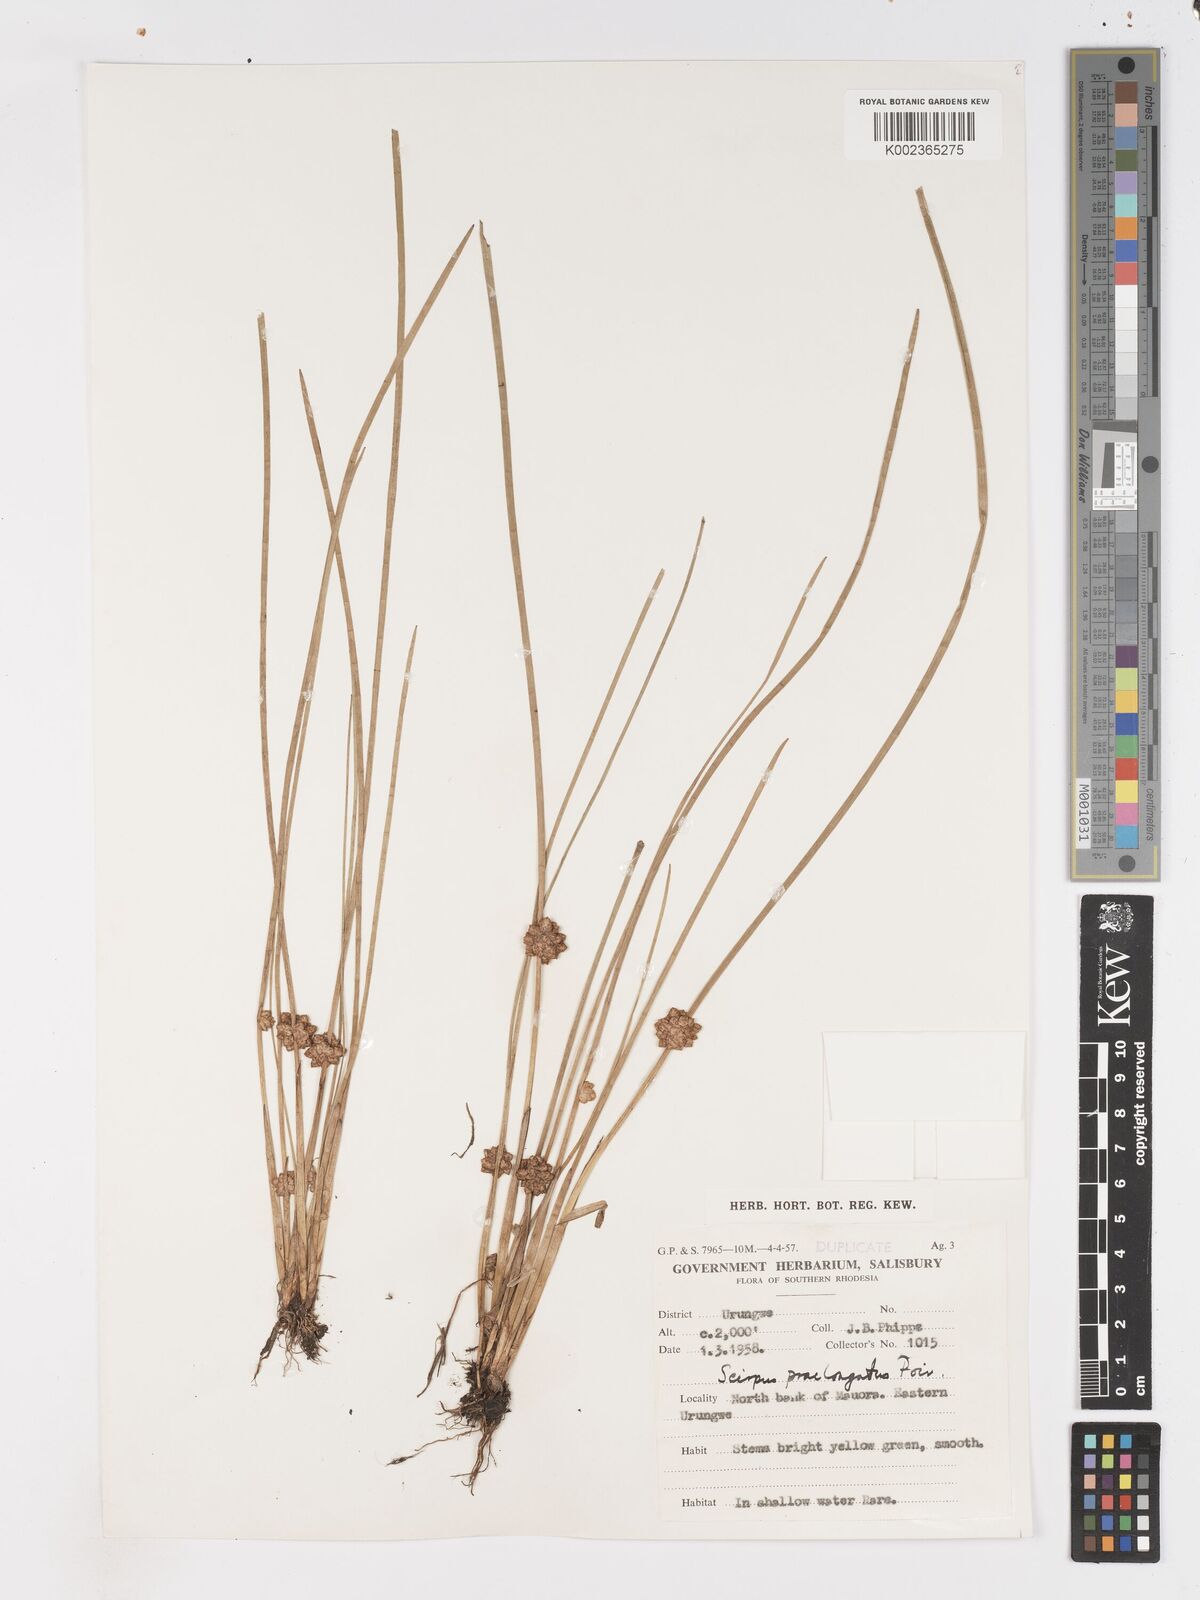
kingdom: Plantae
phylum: Tracheophyta
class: Liliopsida
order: Poales
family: Cyperaceae
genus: Schoenoplectiella
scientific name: Schoenoplectiella senegalensis
